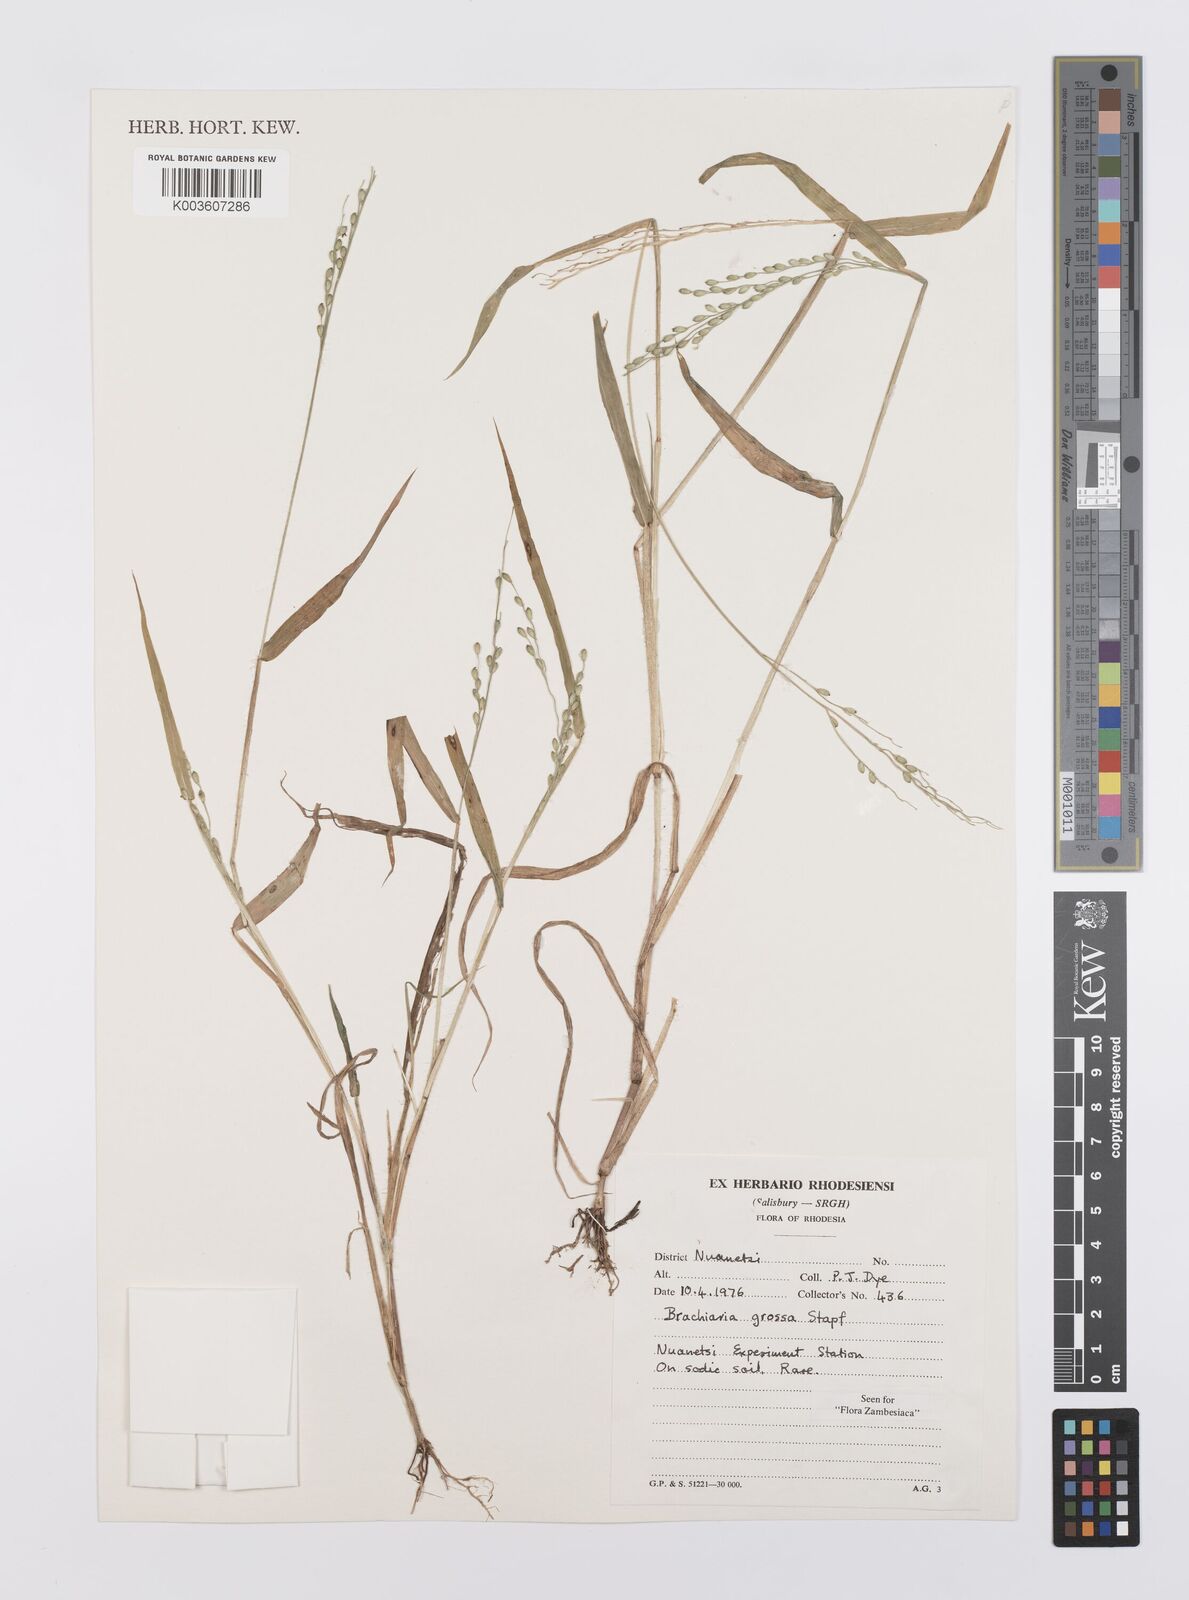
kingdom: Plantae
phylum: Tracheophyta
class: Liliopsida
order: Poales
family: Poaceae
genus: Urochloa
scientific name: Urochloa Brachiaria grossa
